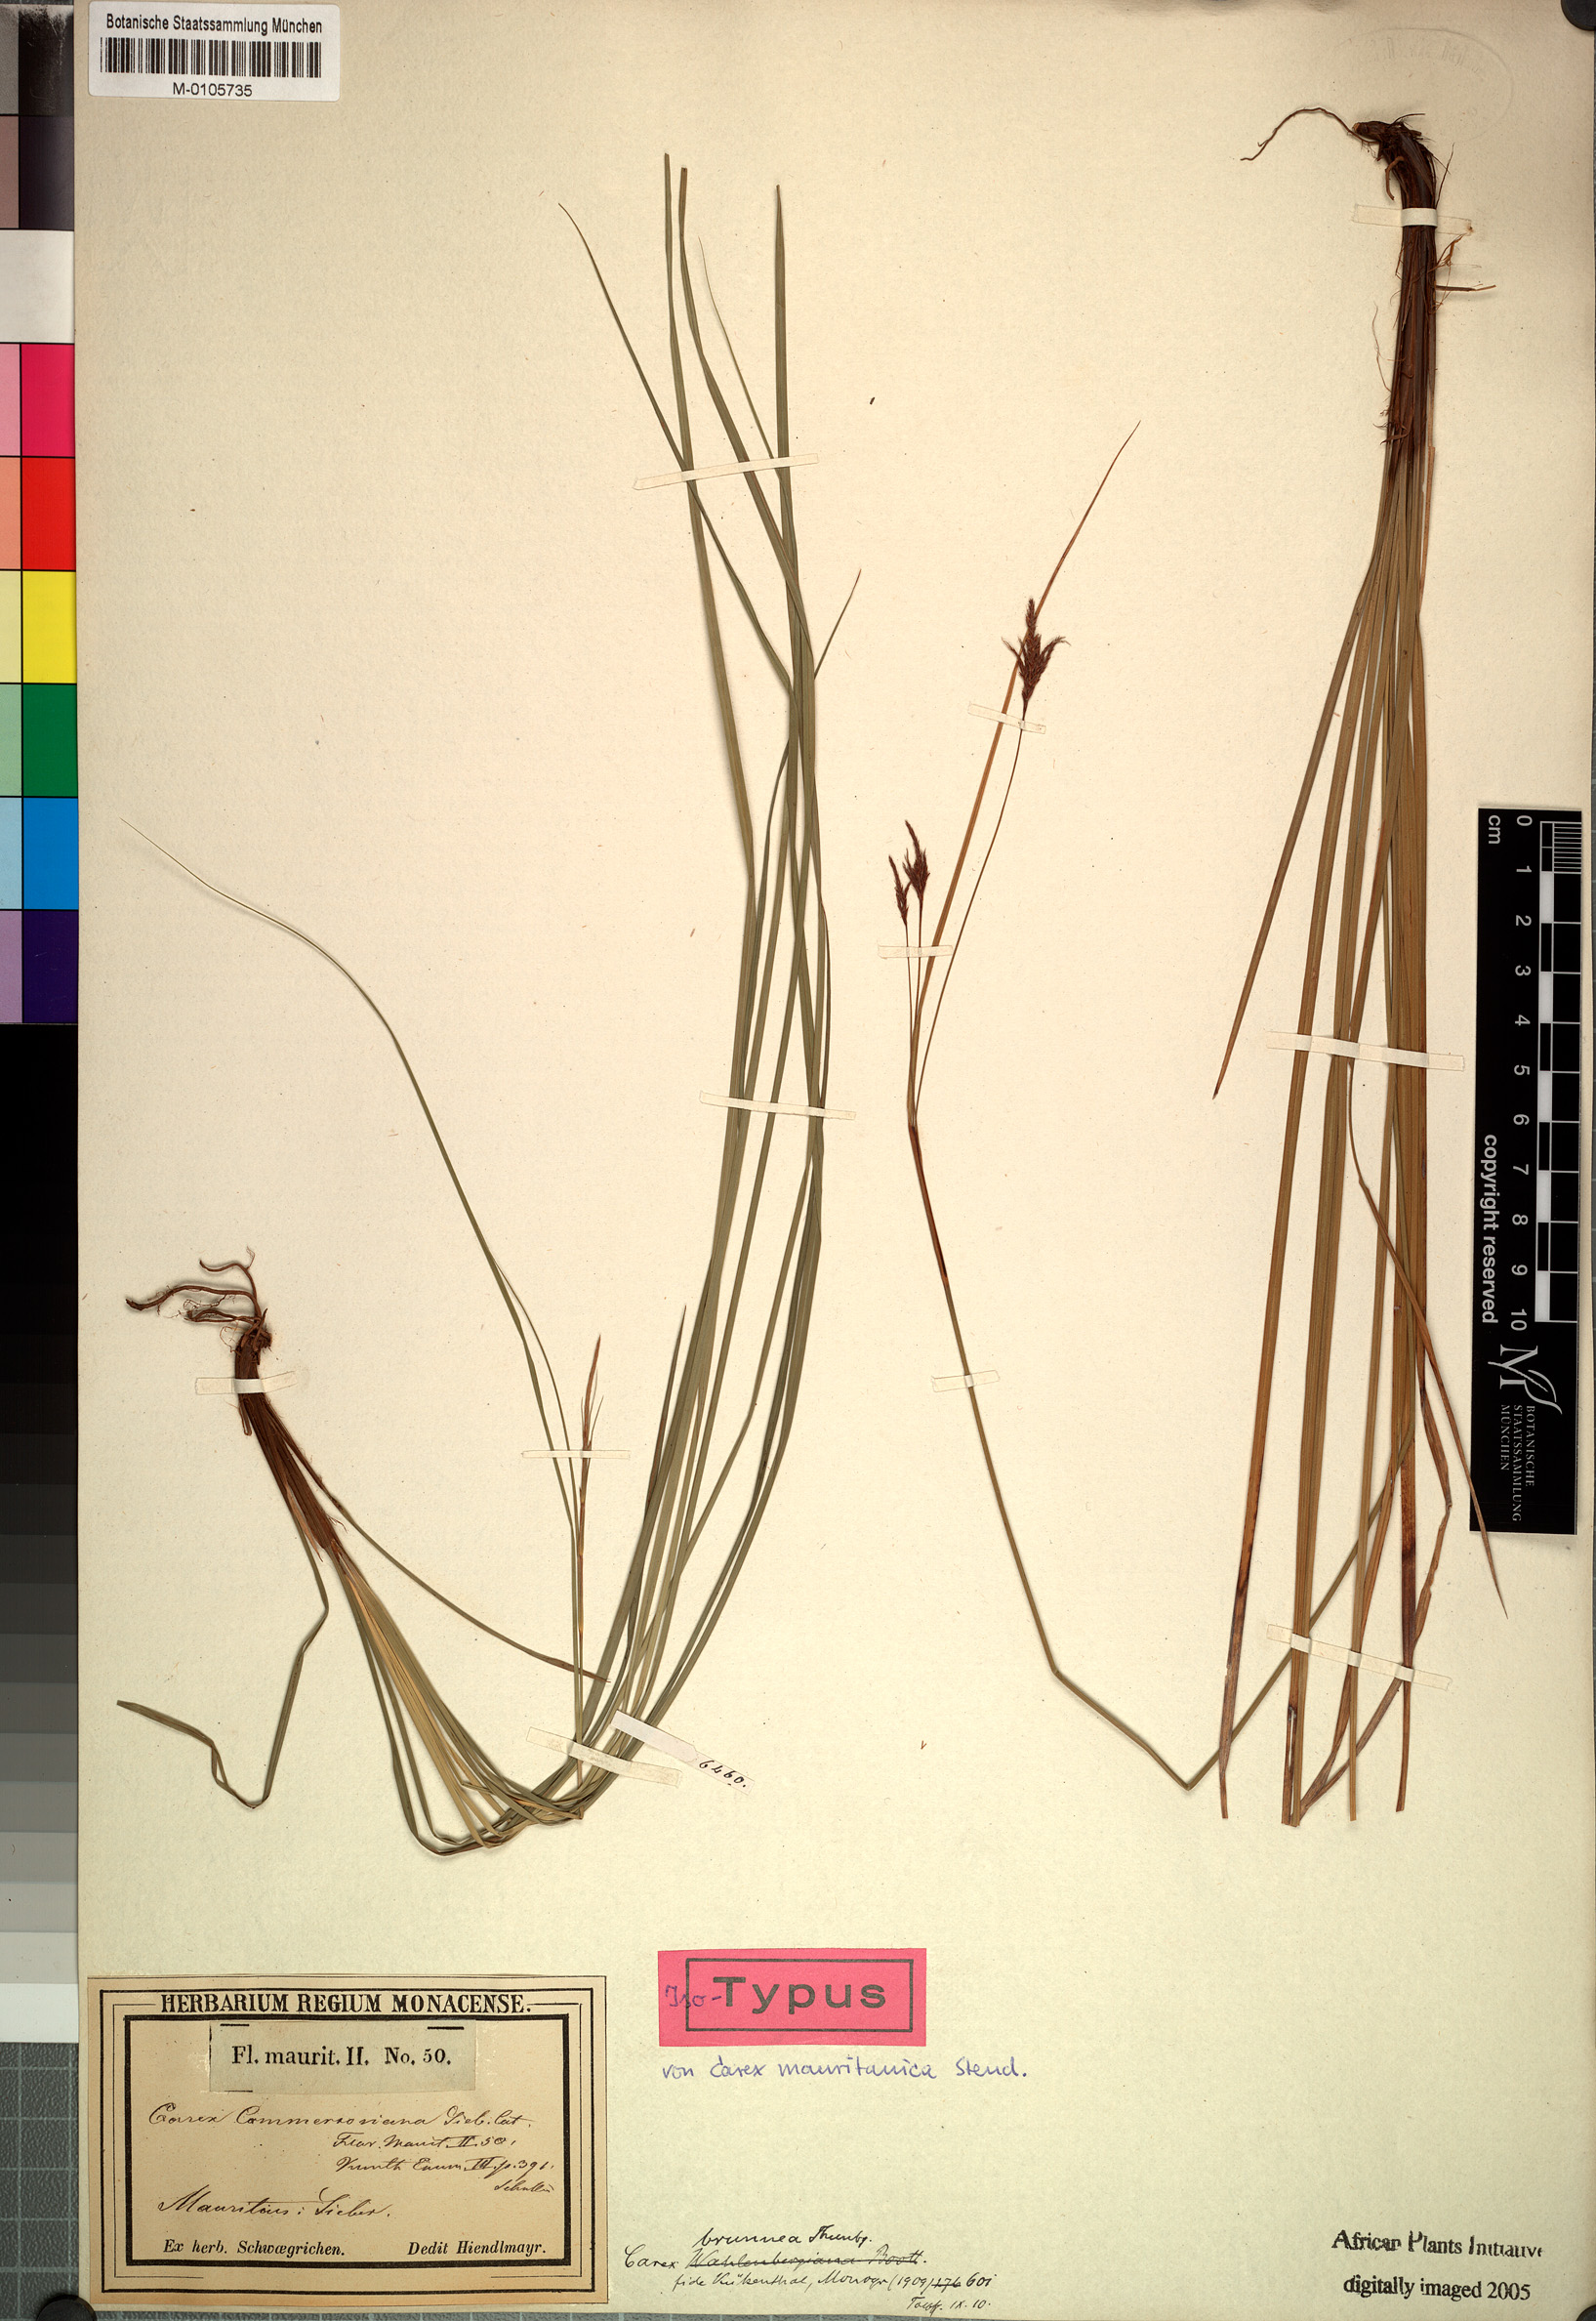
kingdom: Plantae
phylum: Tracheophyta
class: Liliopsida
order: Poales
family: Cyperaceae
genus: Carex
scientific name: Carex brunnea
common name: Greater brown sedge
